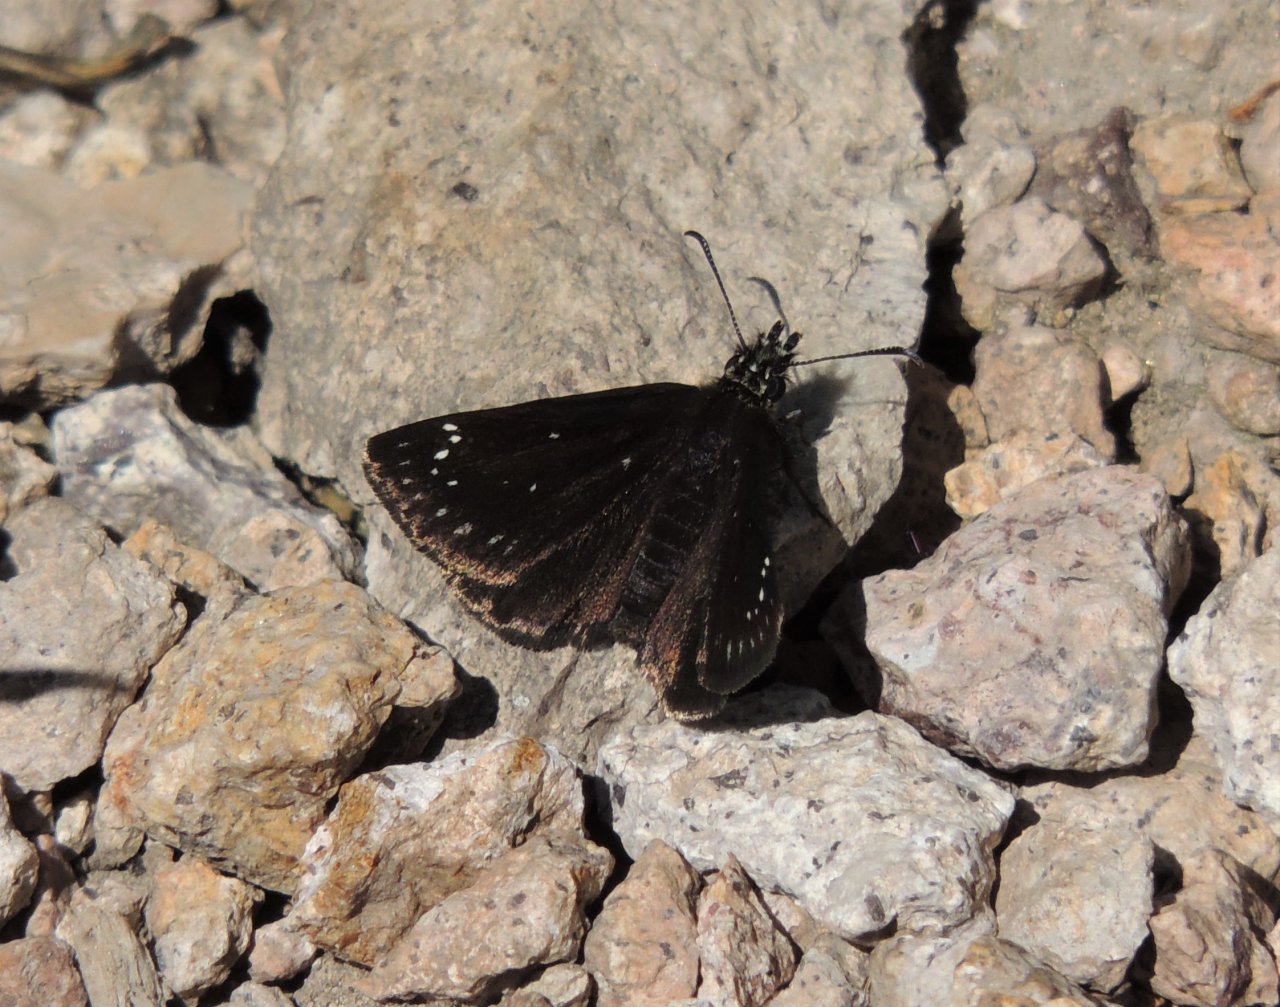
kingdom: Animalia
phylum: Arthropoda
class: Insecta
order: Lepidoptera
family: Hesperiidae
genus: Pholisora
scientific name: Pholisora catullus
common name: Common Sootywing
